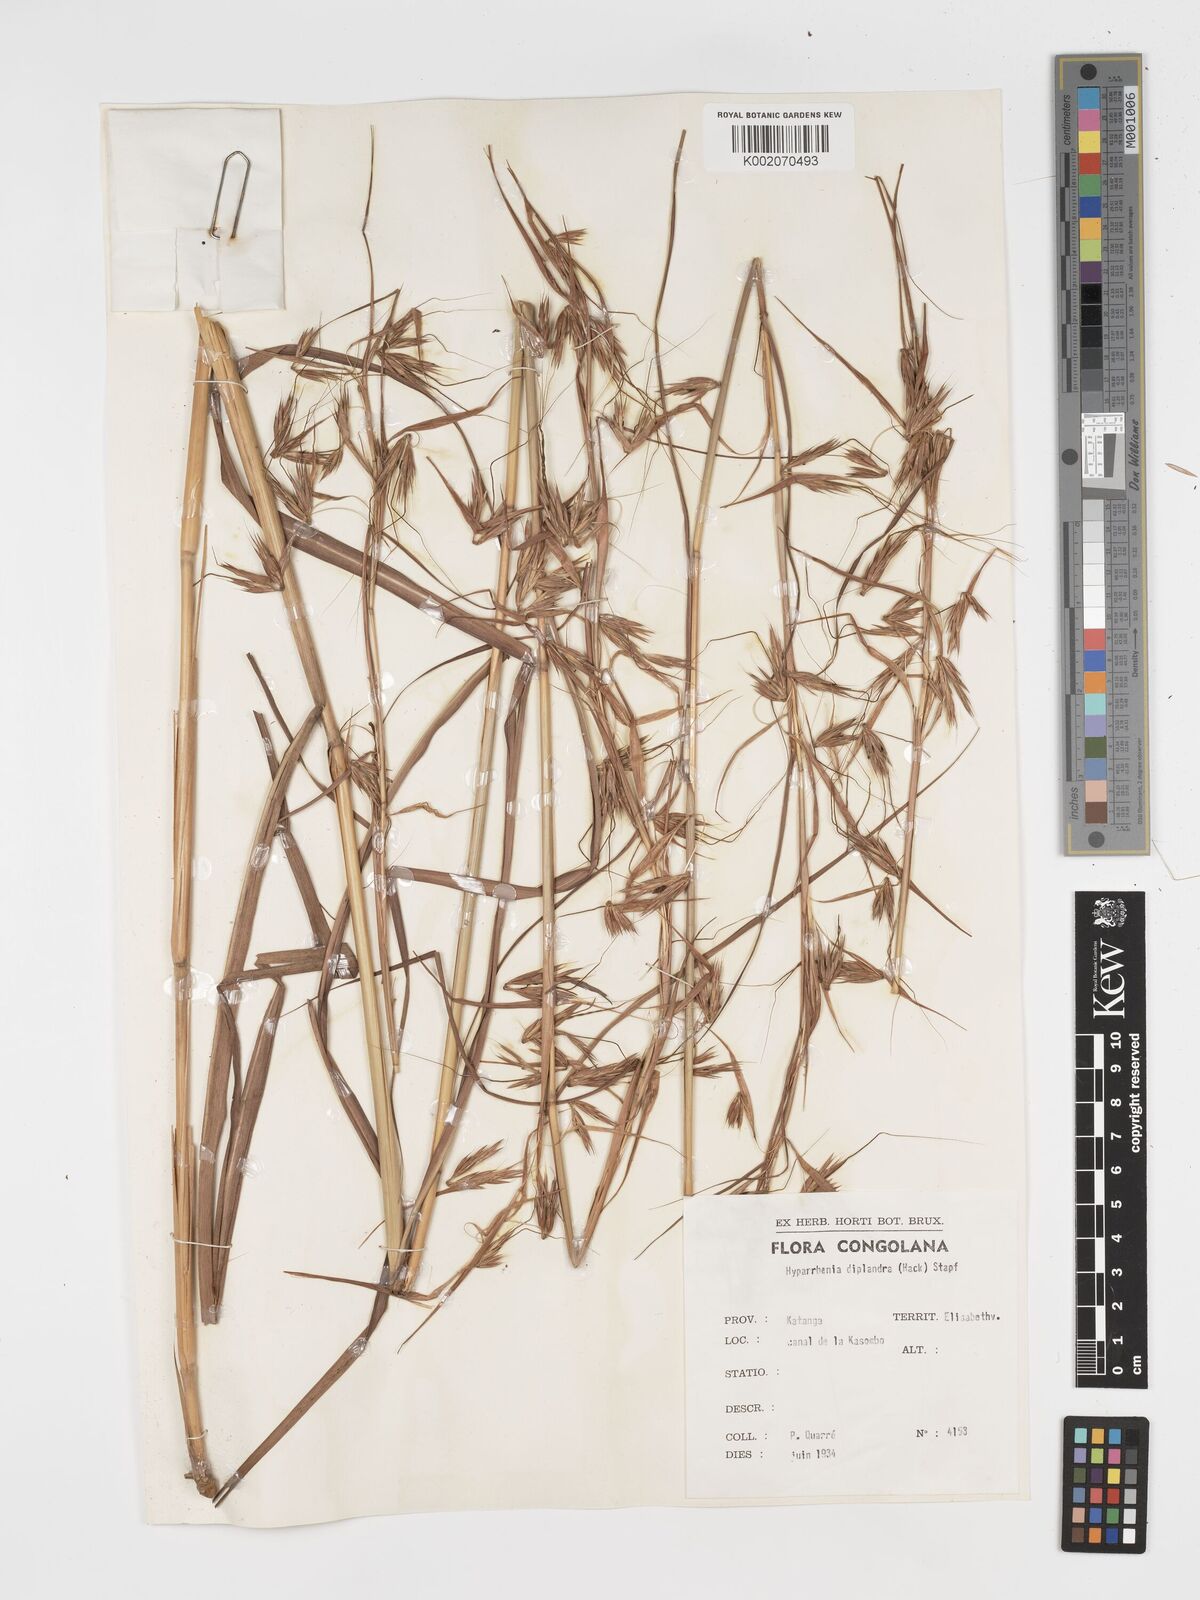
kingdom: Plantae
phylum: Tracheophyta
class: Liliopsida
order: Poales
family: Poaceae
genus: Hyparrhenia
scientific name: Hyparrhenia diplandra
